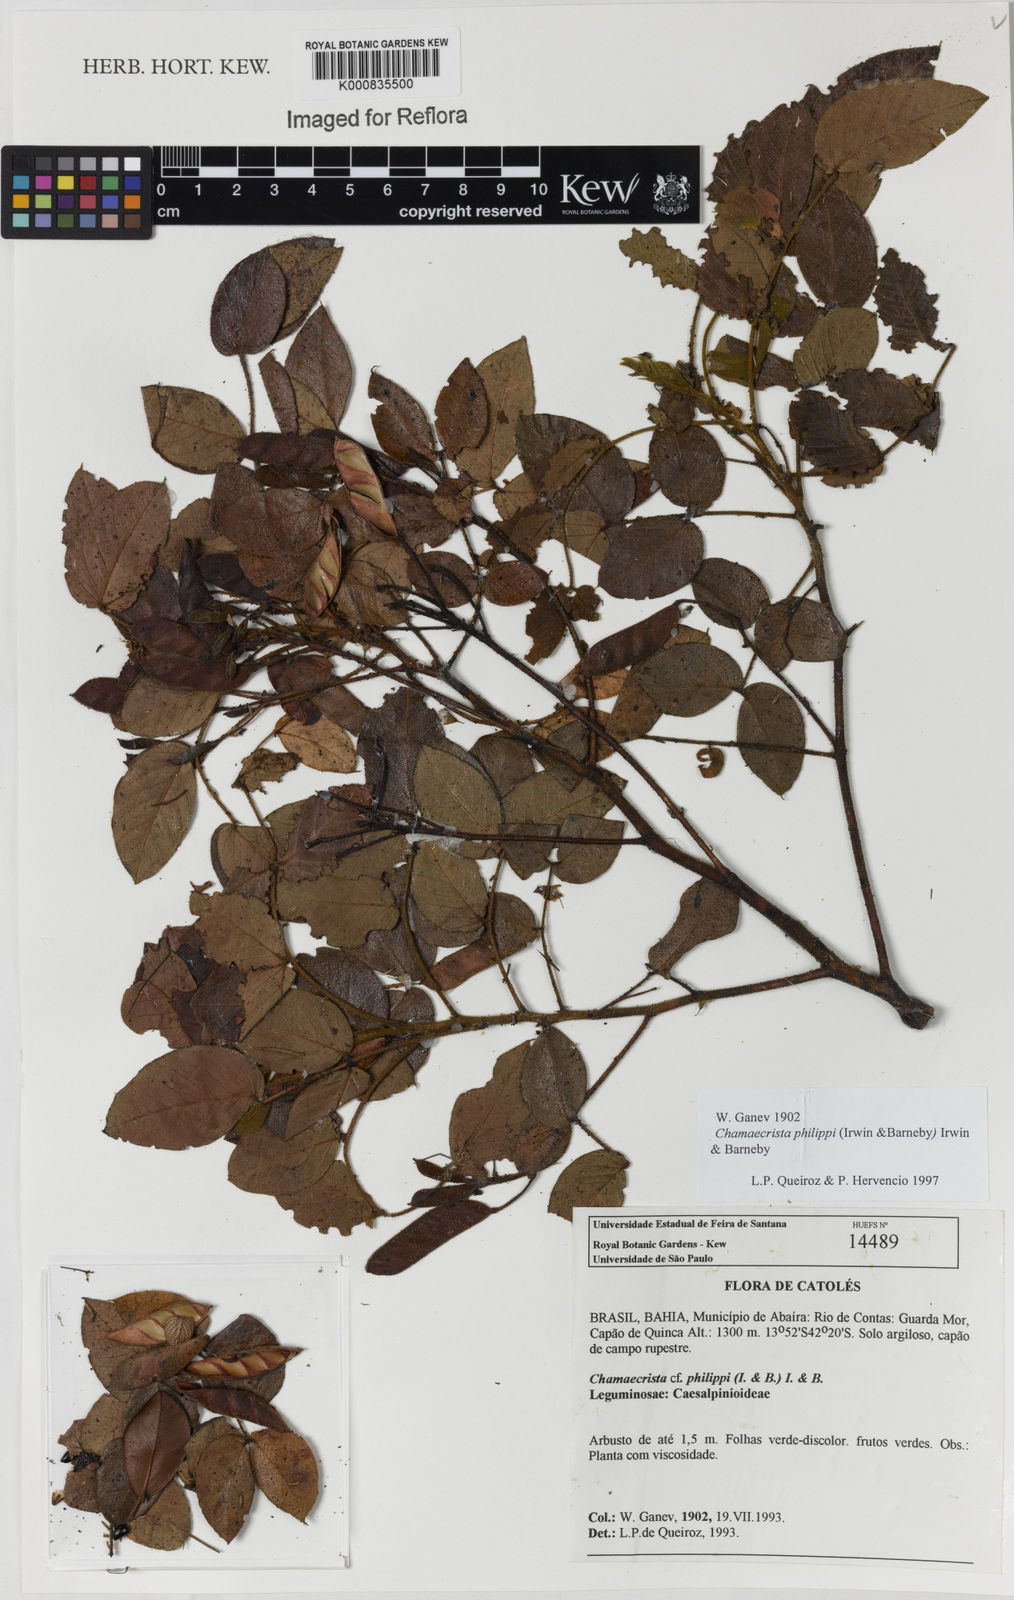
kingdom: Plantae
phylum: Tracheophyta
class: Magnoliopsida
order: Fabales
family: Fabaceae
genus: Chamaecrista
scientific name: Chamaecrista philippii
